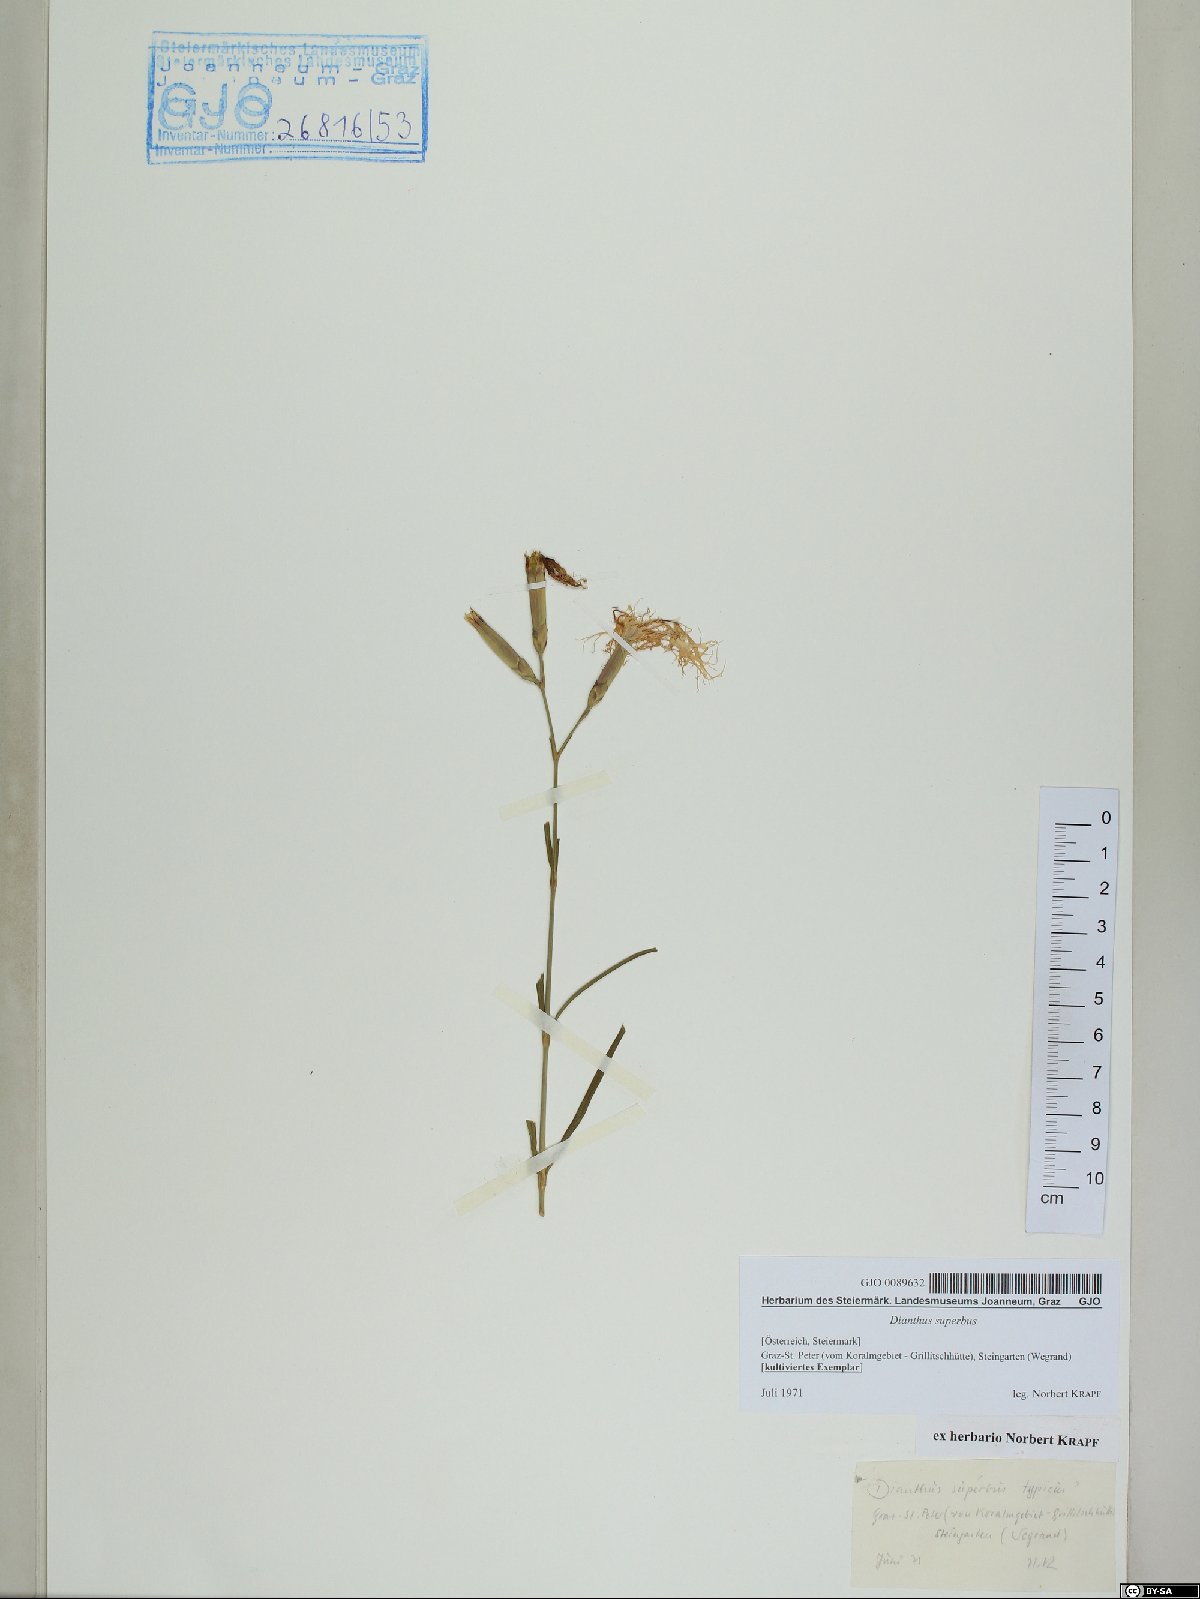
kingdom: Plantae
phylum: Tracheophyta
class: Magnoliopsida
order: Caryophyllales
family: Caryophyllaceae
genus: Dianthus
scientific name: Dianthus superbus
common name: Fringed pink
